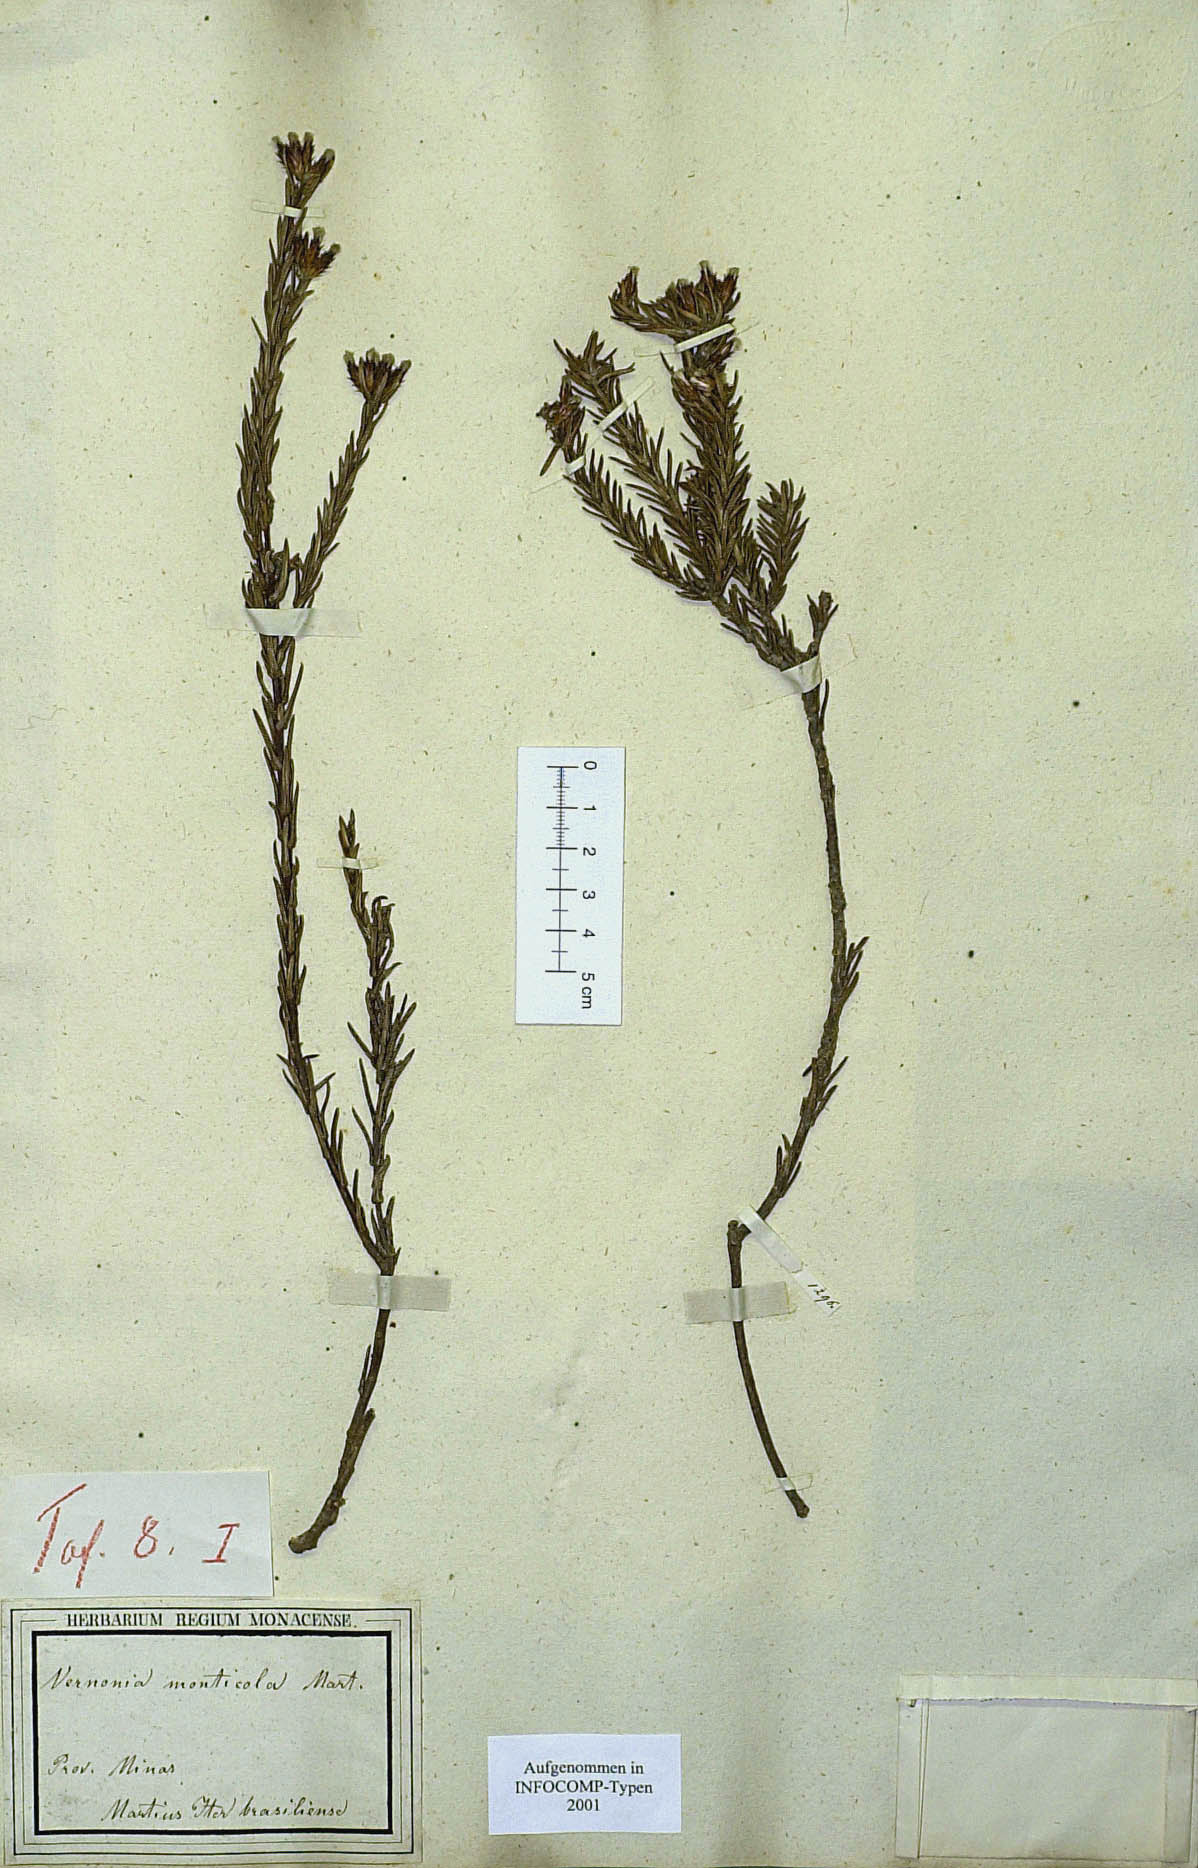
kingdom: Plantae
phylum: Tracheophyta
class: Magnoliopsida
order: Asterales
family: Asteraceae
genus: Stenocephalum
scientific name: Stenocephalum apiculatum
